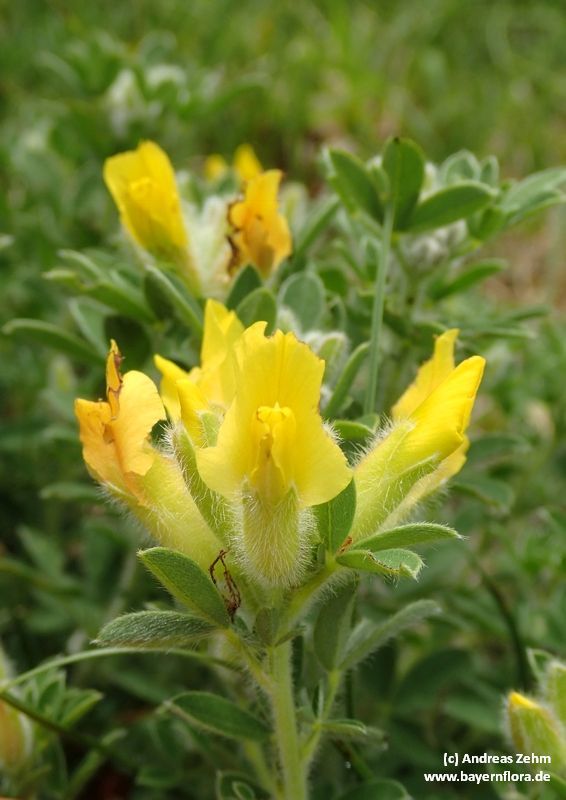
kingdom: Plantae
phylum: Tracheophyta
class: Magnoliopsida
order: Fabales
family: Fabaceae
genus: Chamaecytisus
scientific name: Chamaecytisus supinus
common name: Clustered broom
